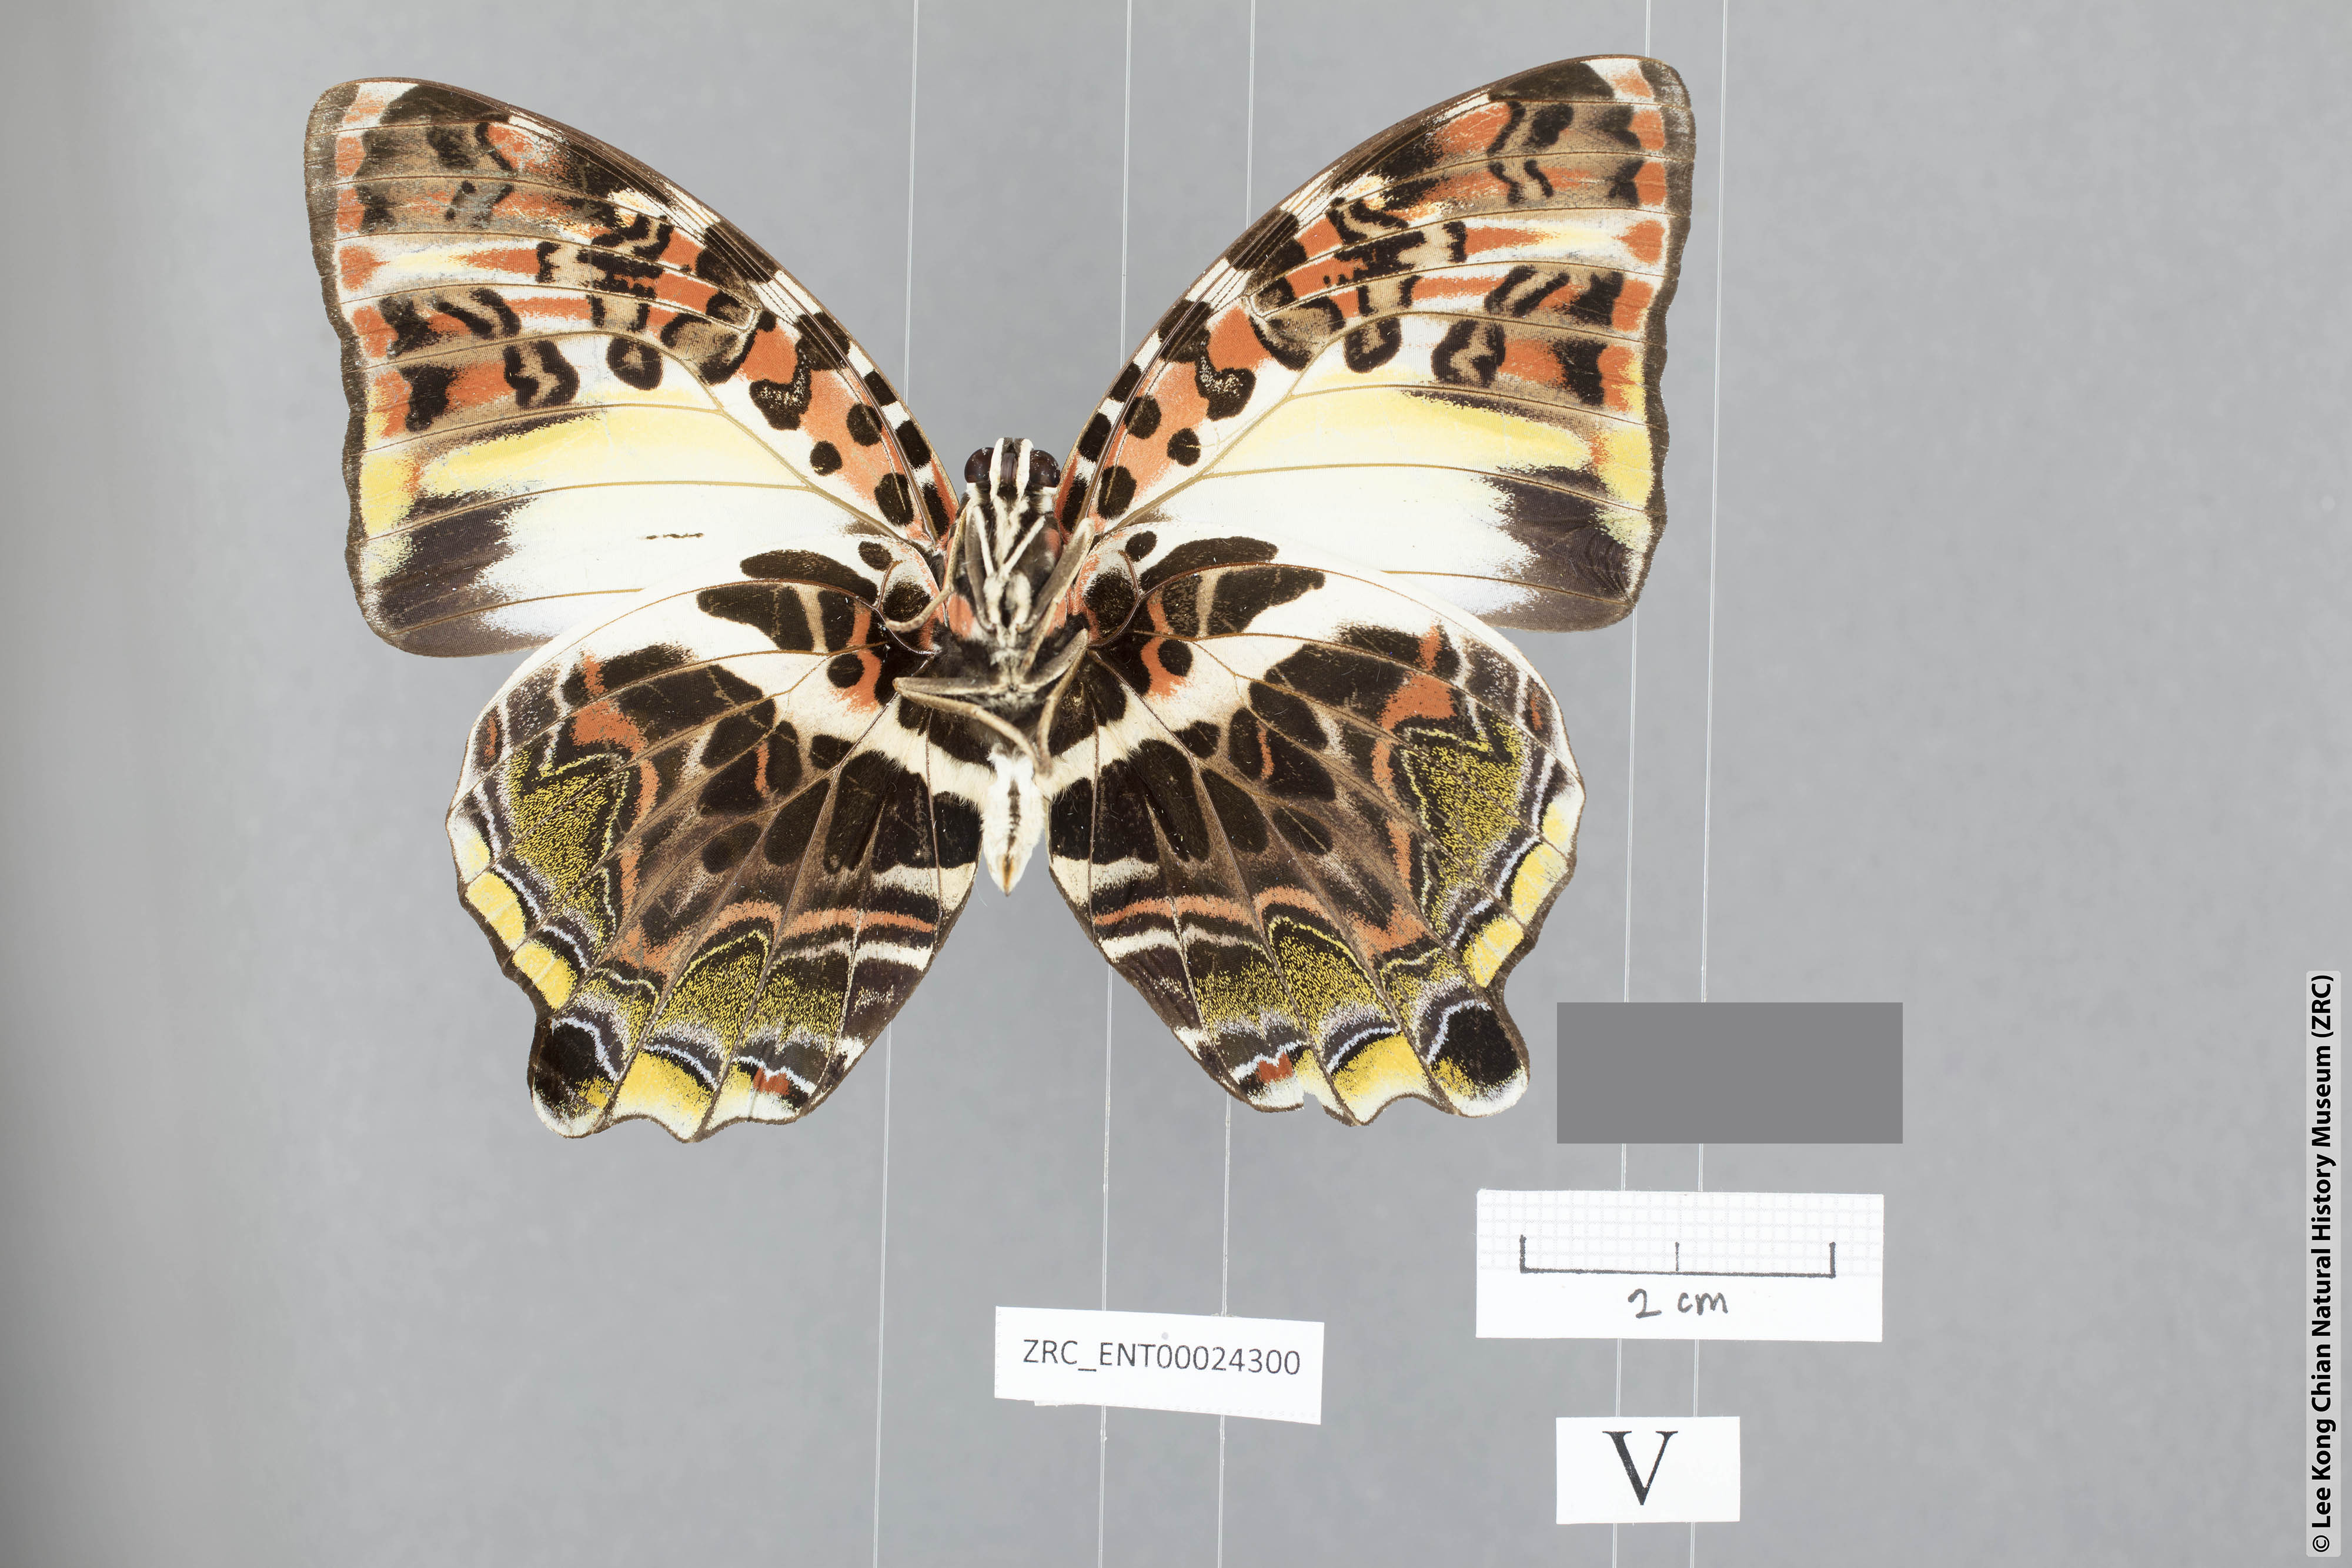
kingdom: Animalia
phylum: Arthropoda
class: Insecta
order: Lepidoptera
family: Nymphalidae
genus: Prothoe
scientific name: Prothoe Agatasa calydonia
